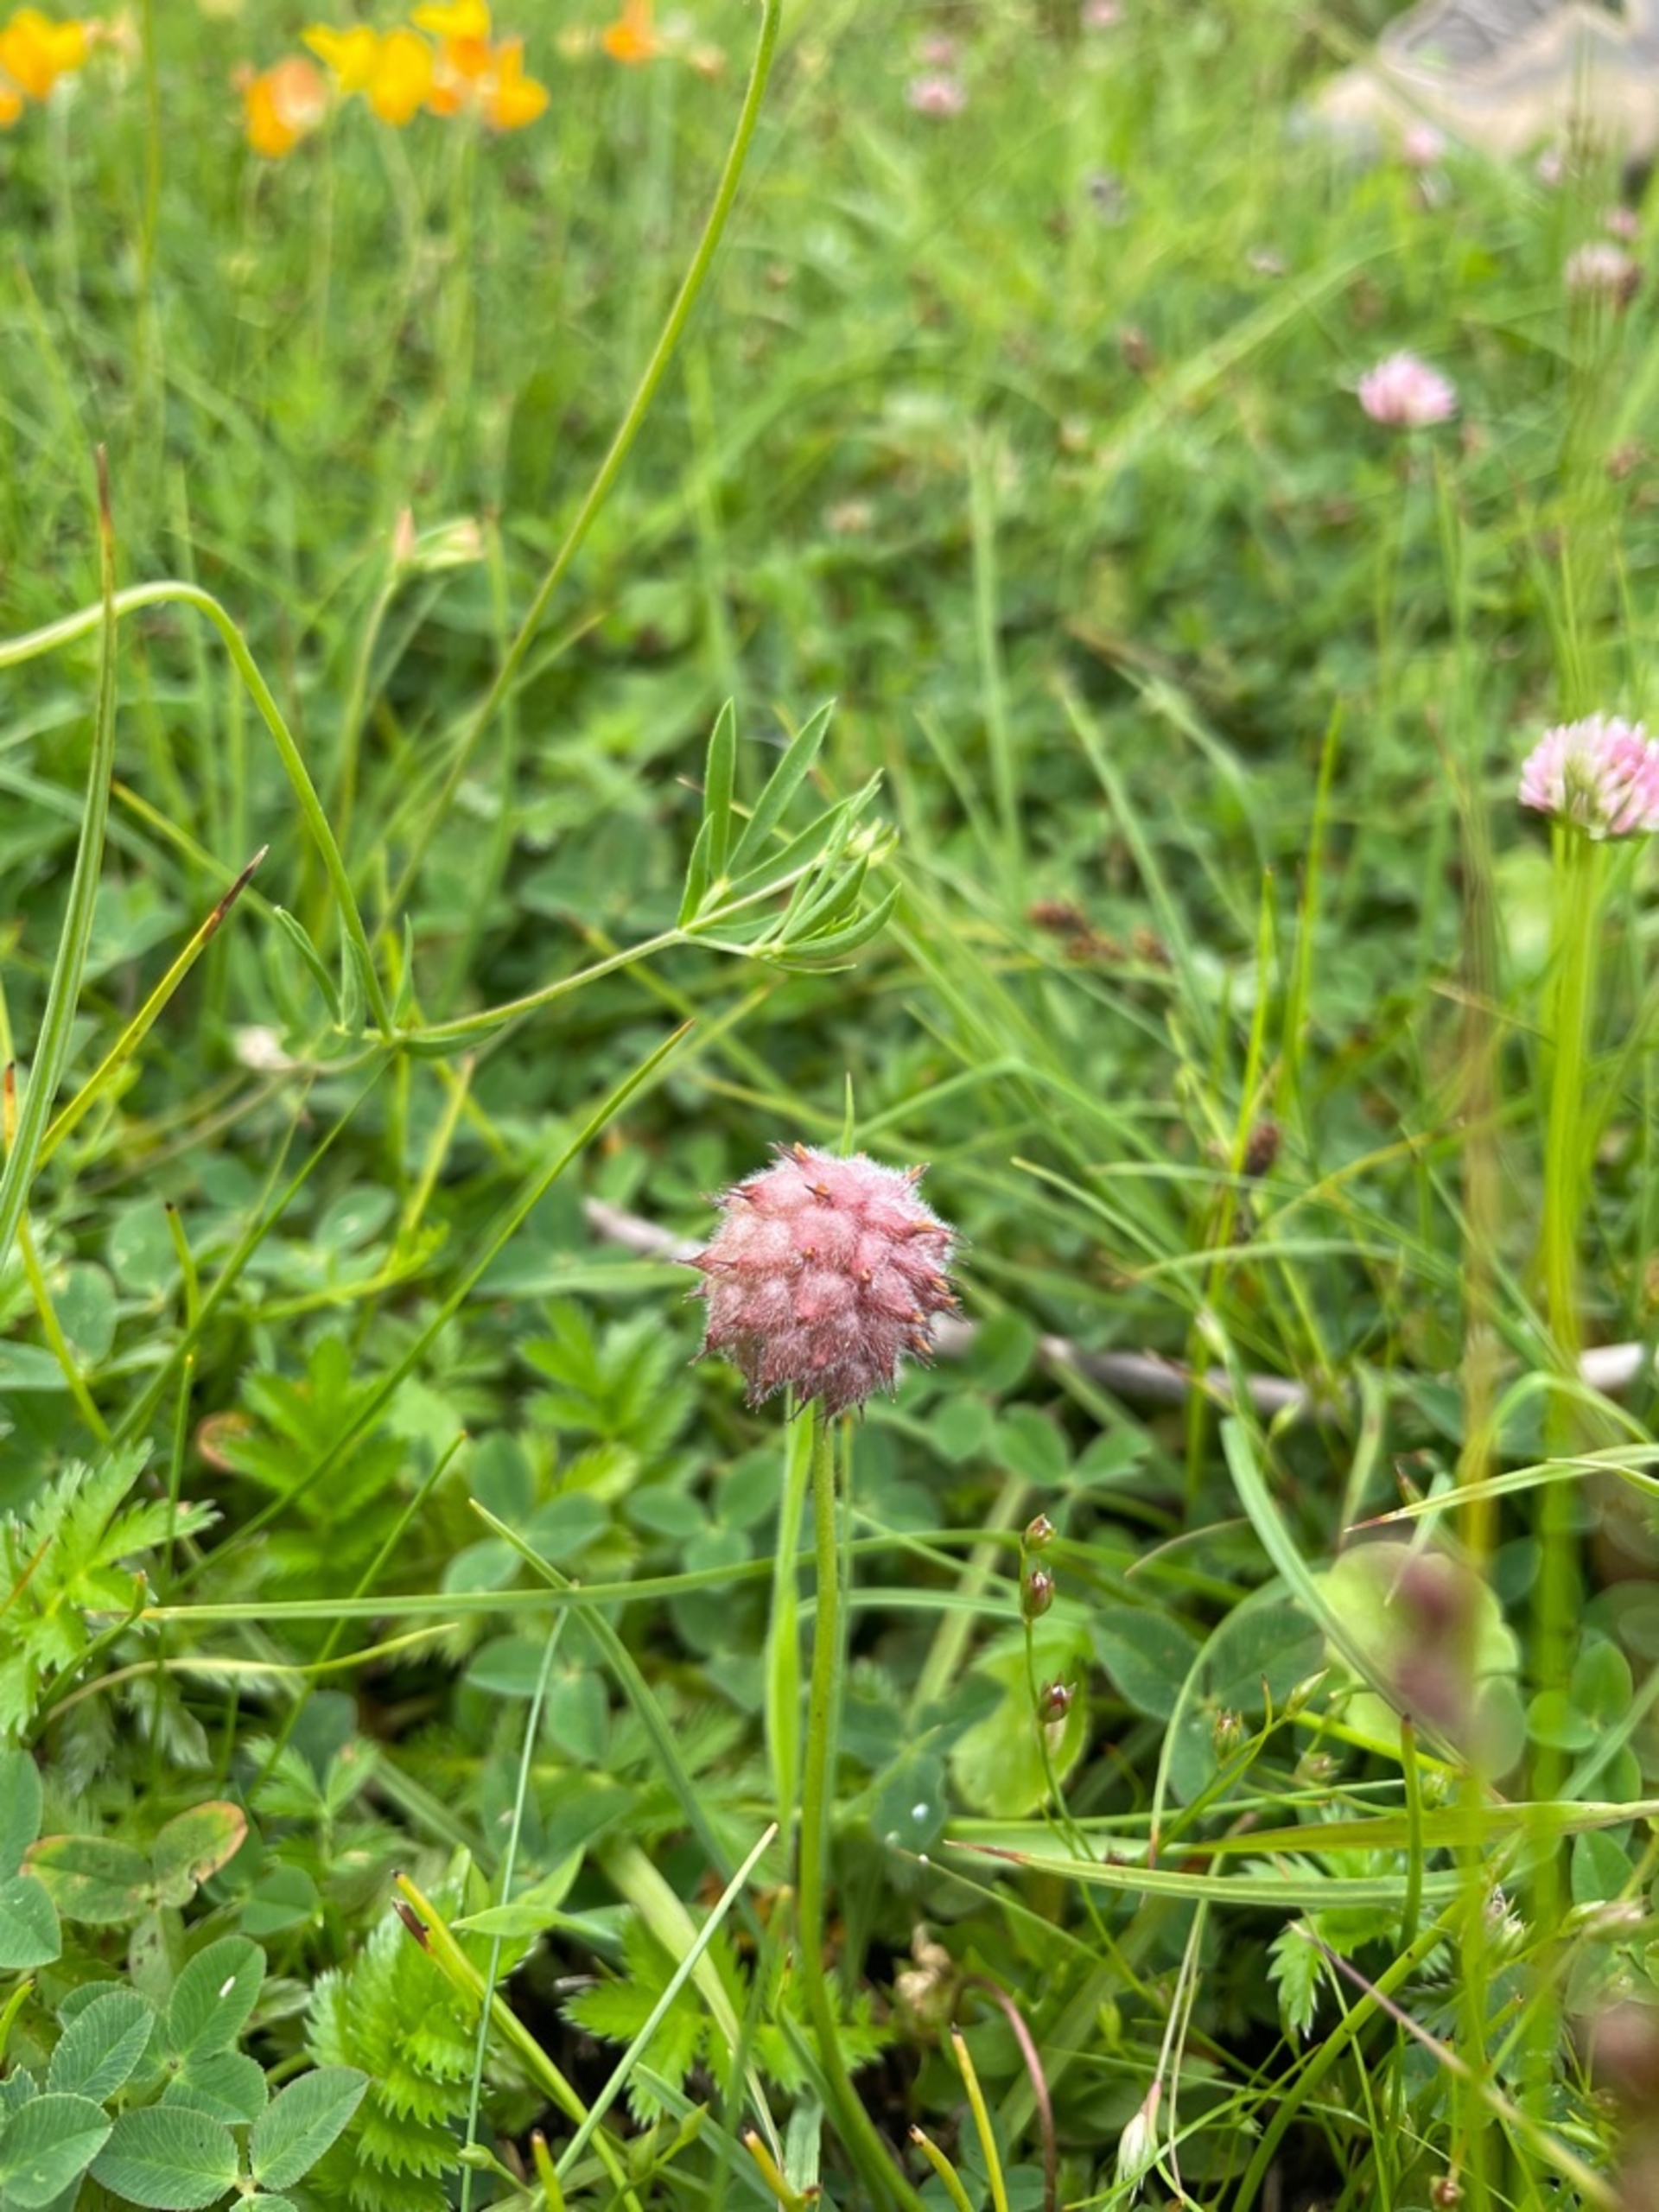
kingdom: Plantae
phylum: Tracheophyta
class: Magnoliopsida
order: Fabales
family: Fabaceae
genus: Trifolium
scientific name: Trifolium fragiferum
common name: Jordbær-kløver
